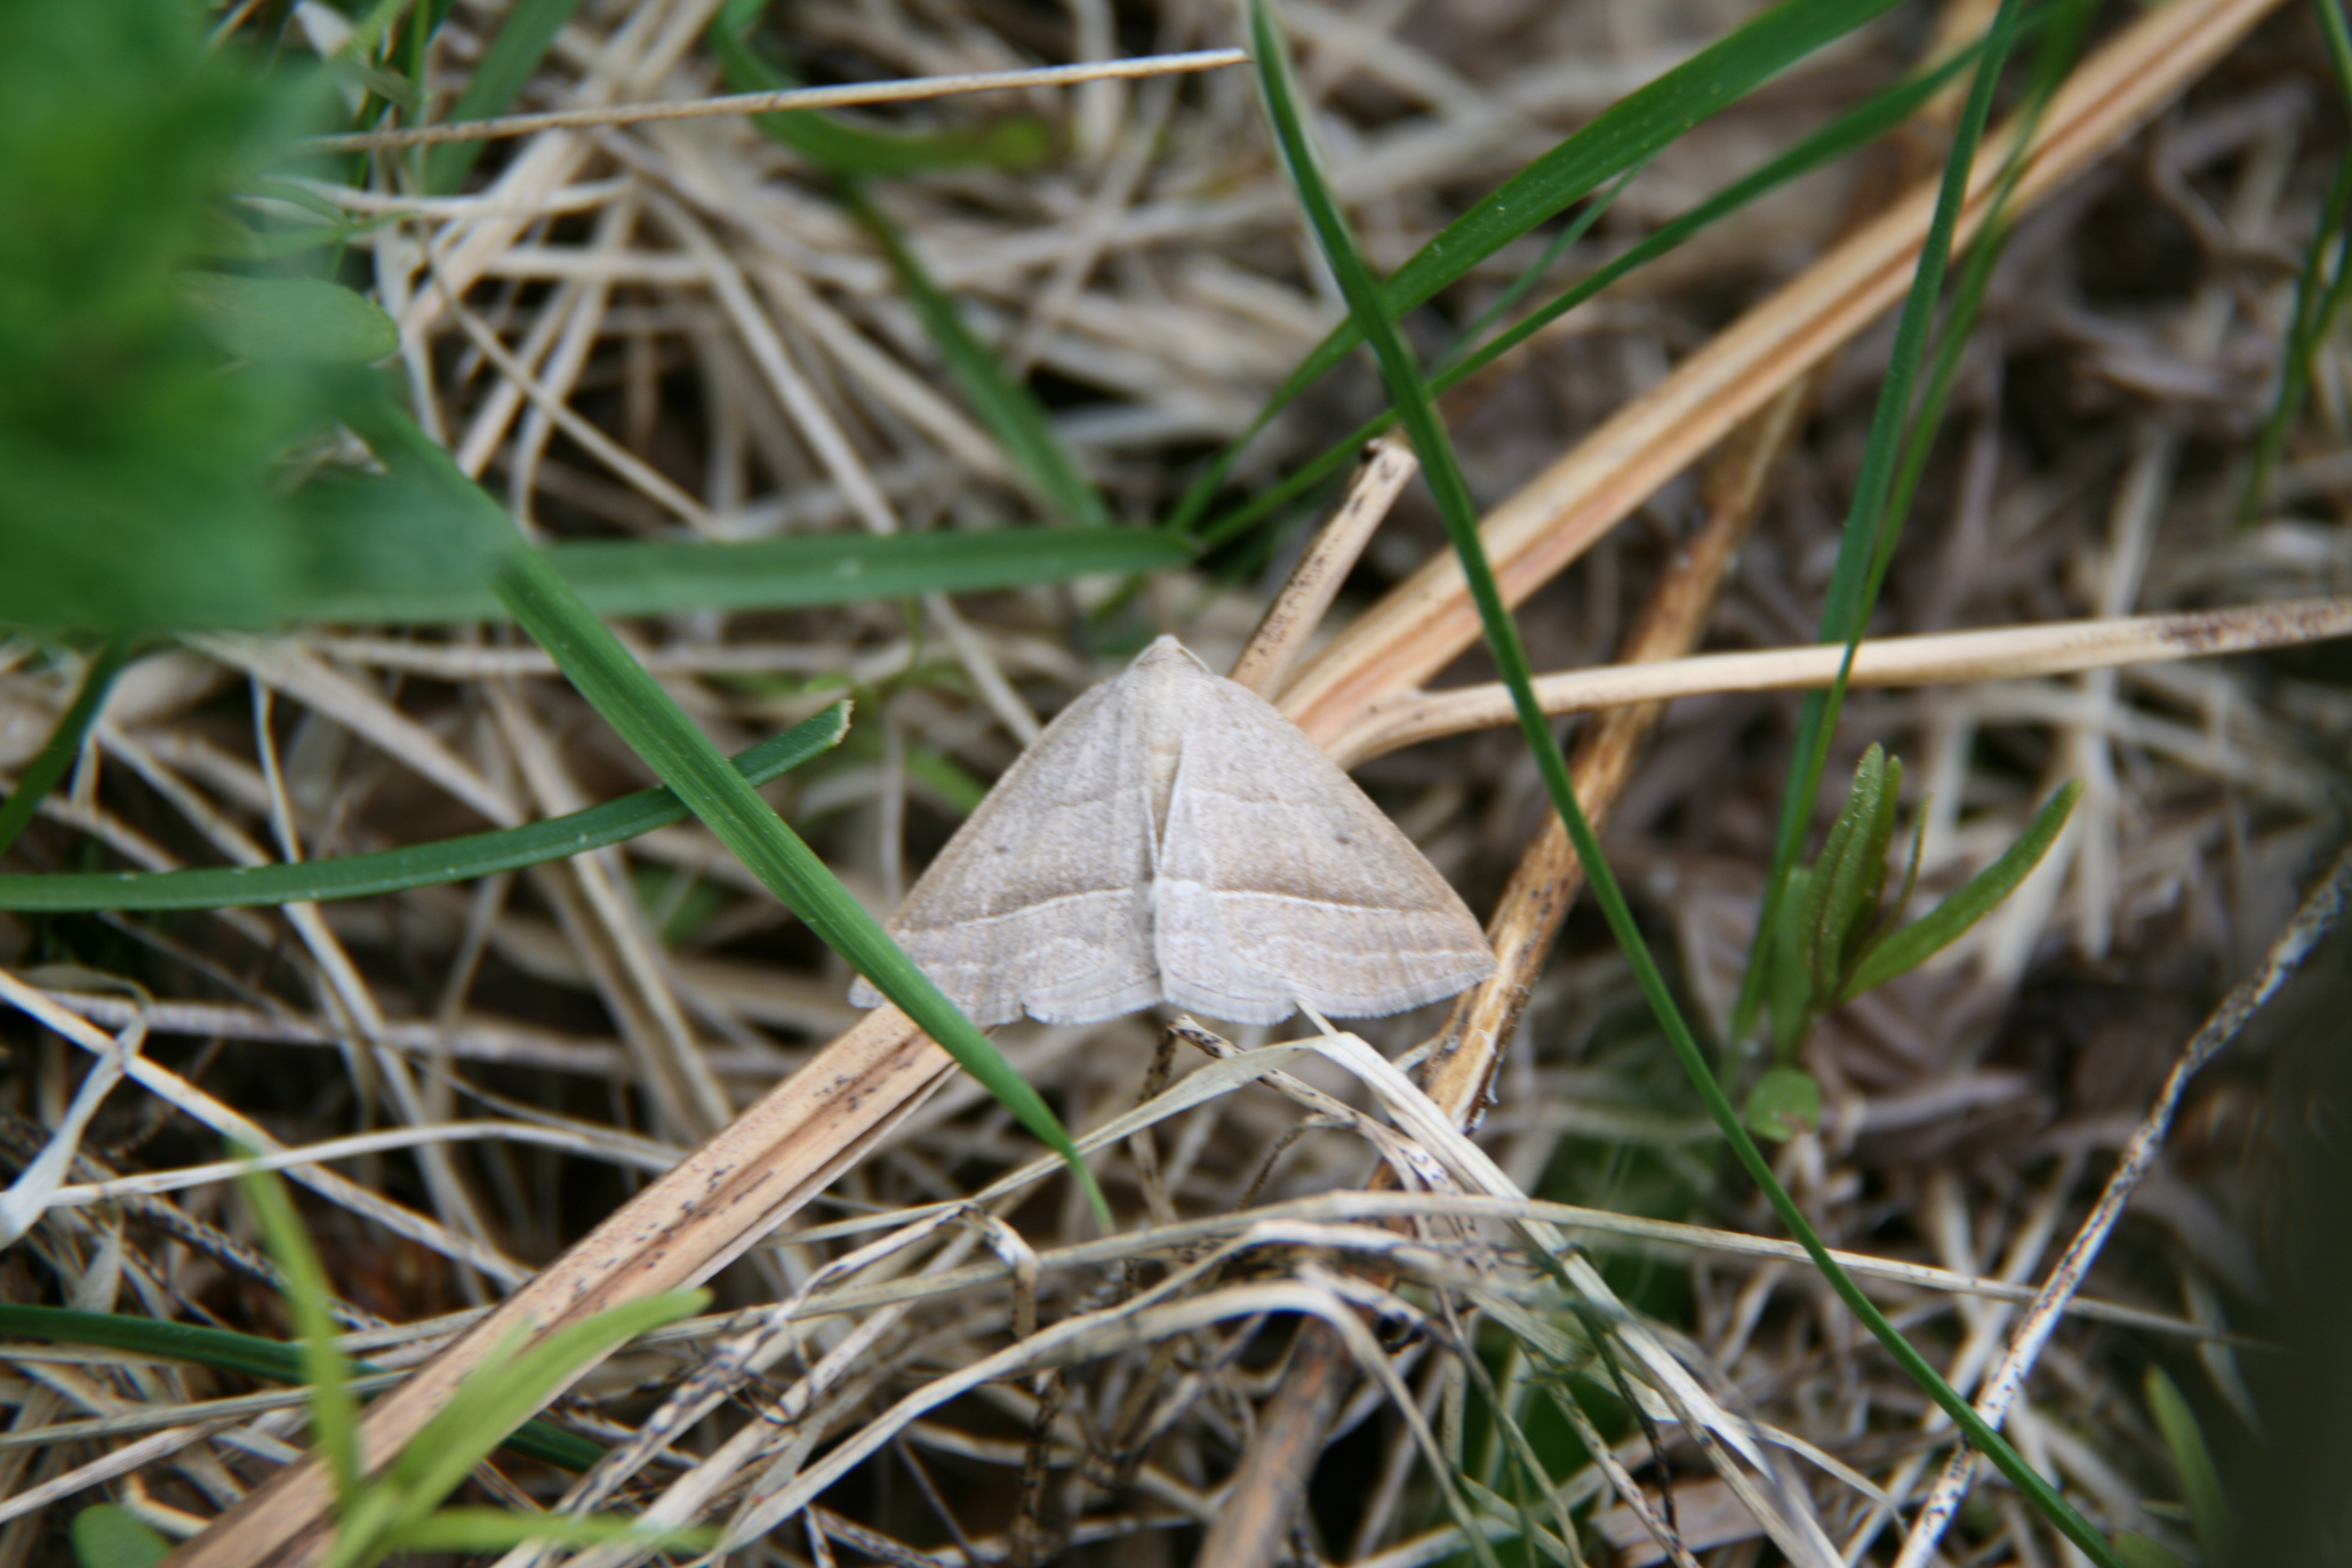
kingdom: Animalia
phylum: Arthropoda
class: Insecta
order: Lepidoptera
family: Pterophoridae
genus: Pterophorus
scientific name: Pterophorus Petrophora chlorosata
